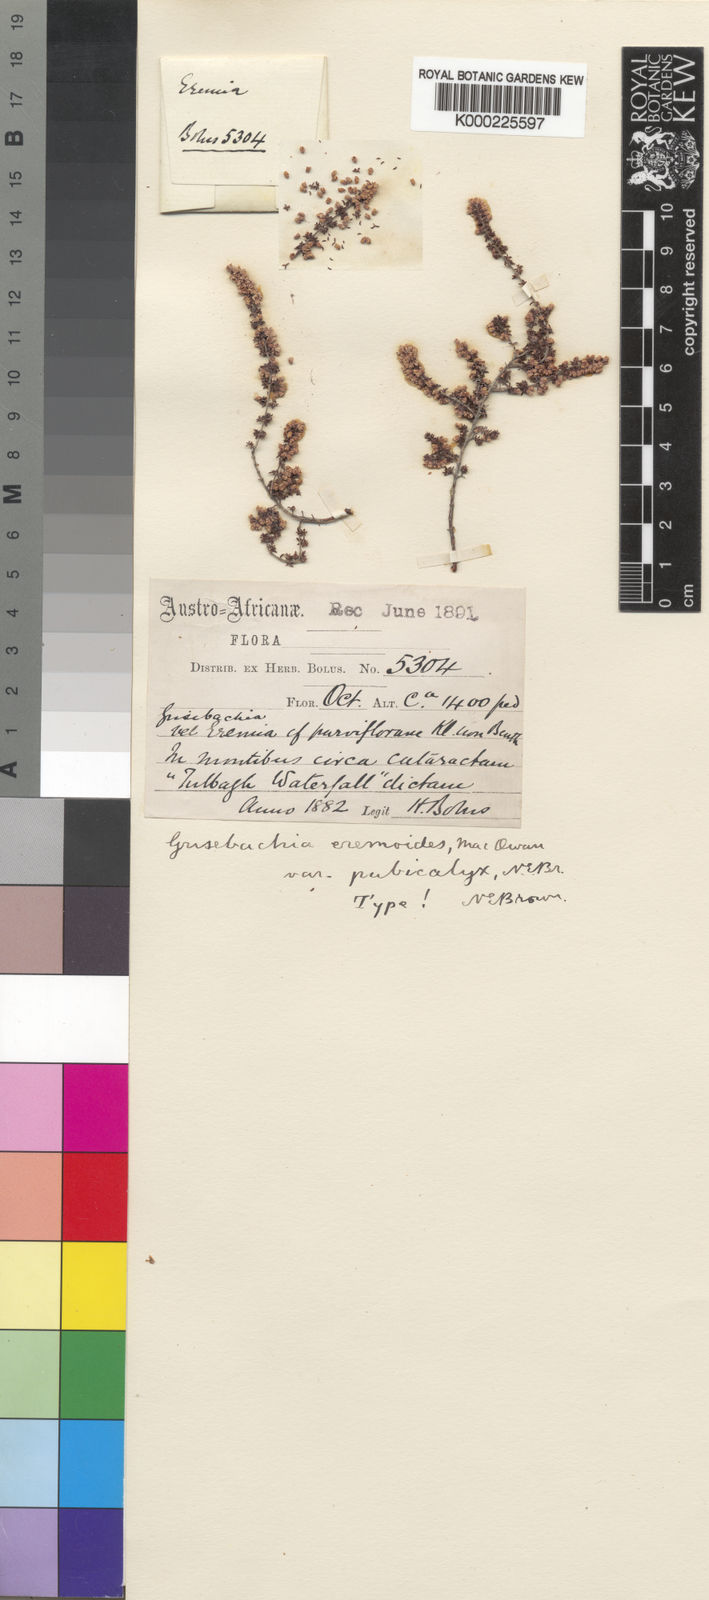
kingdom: Plantae
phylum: Tracheophyta
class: Magnoliopsida
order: Ericales
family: Ericaceae
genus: Erica
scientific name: Erica
